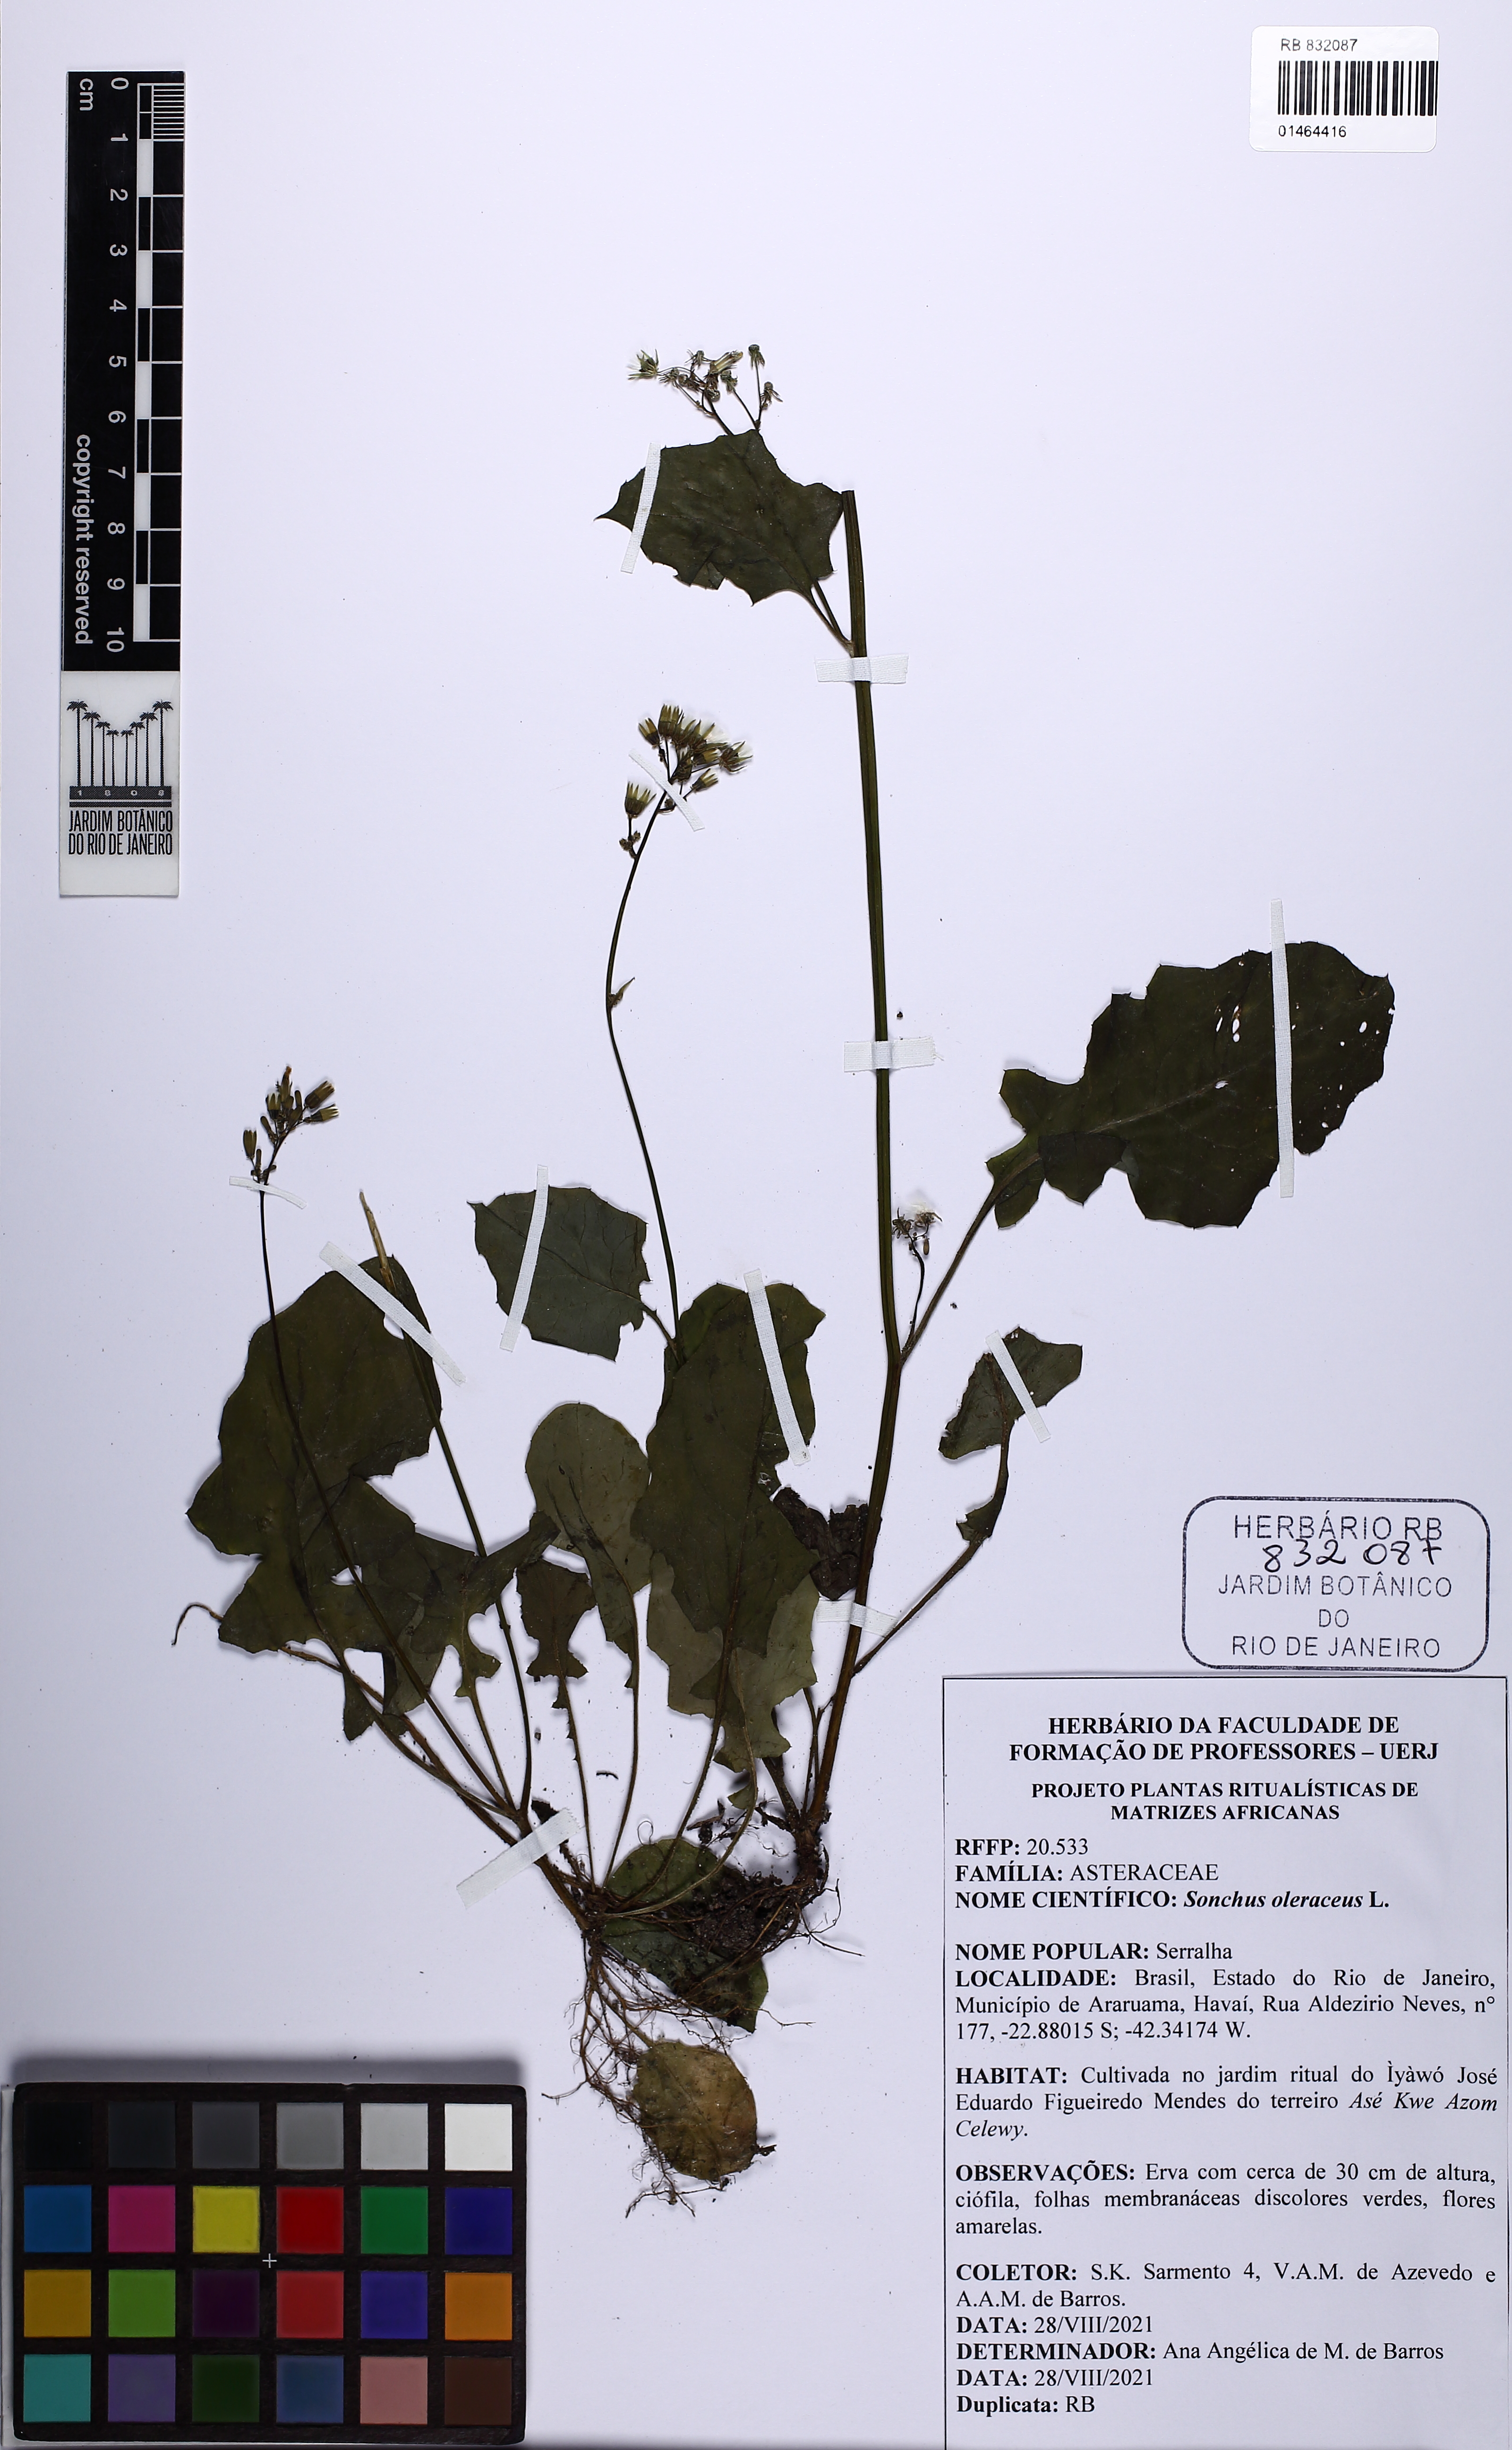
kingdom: Plantae
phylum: Tracheophyta
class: Magnoliopsida
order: Asterales
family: Asteraceae
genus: Sonchus
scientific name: Sonchus oleraceus
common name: Common sowthistle
